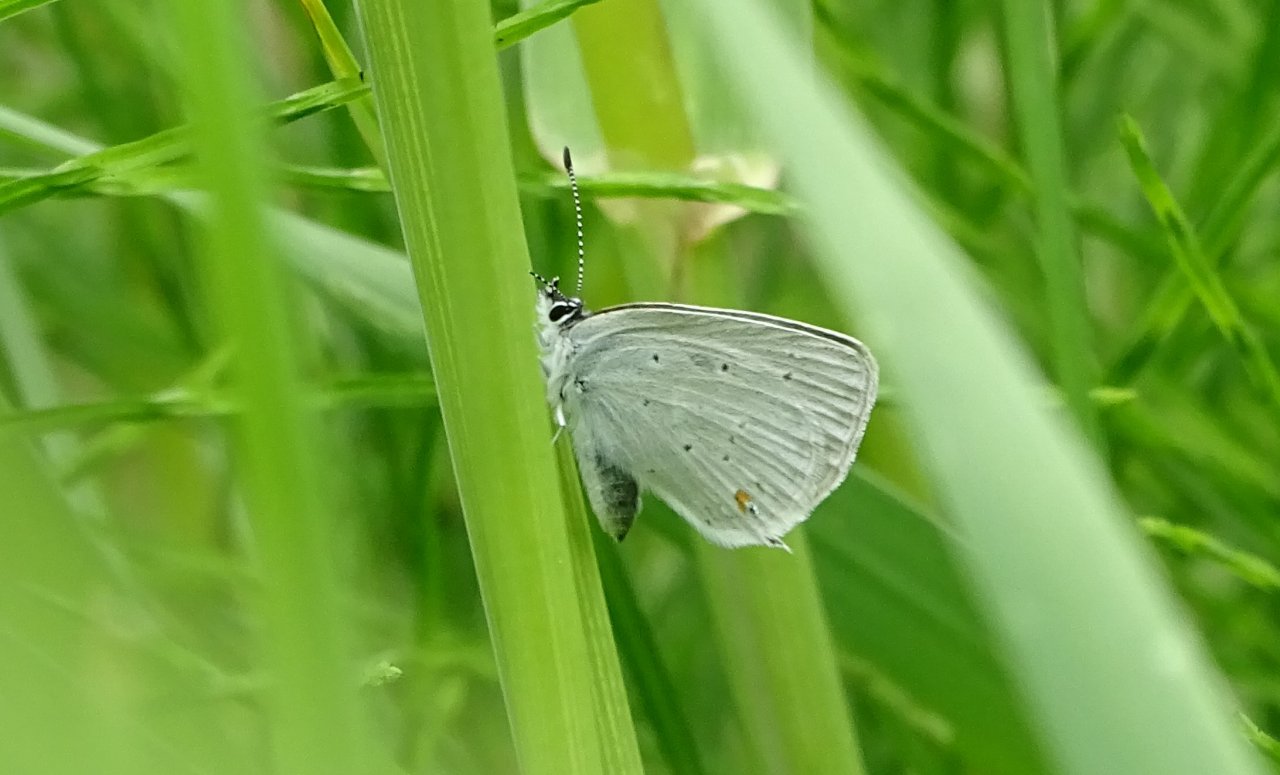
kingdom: Animalia
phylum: Arthropoda
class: Insecta
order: Lepidoptera
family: Lycaenidae
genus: Elkalyce
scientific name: Elkalyce amyntula
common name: Western Tailed-Blue
